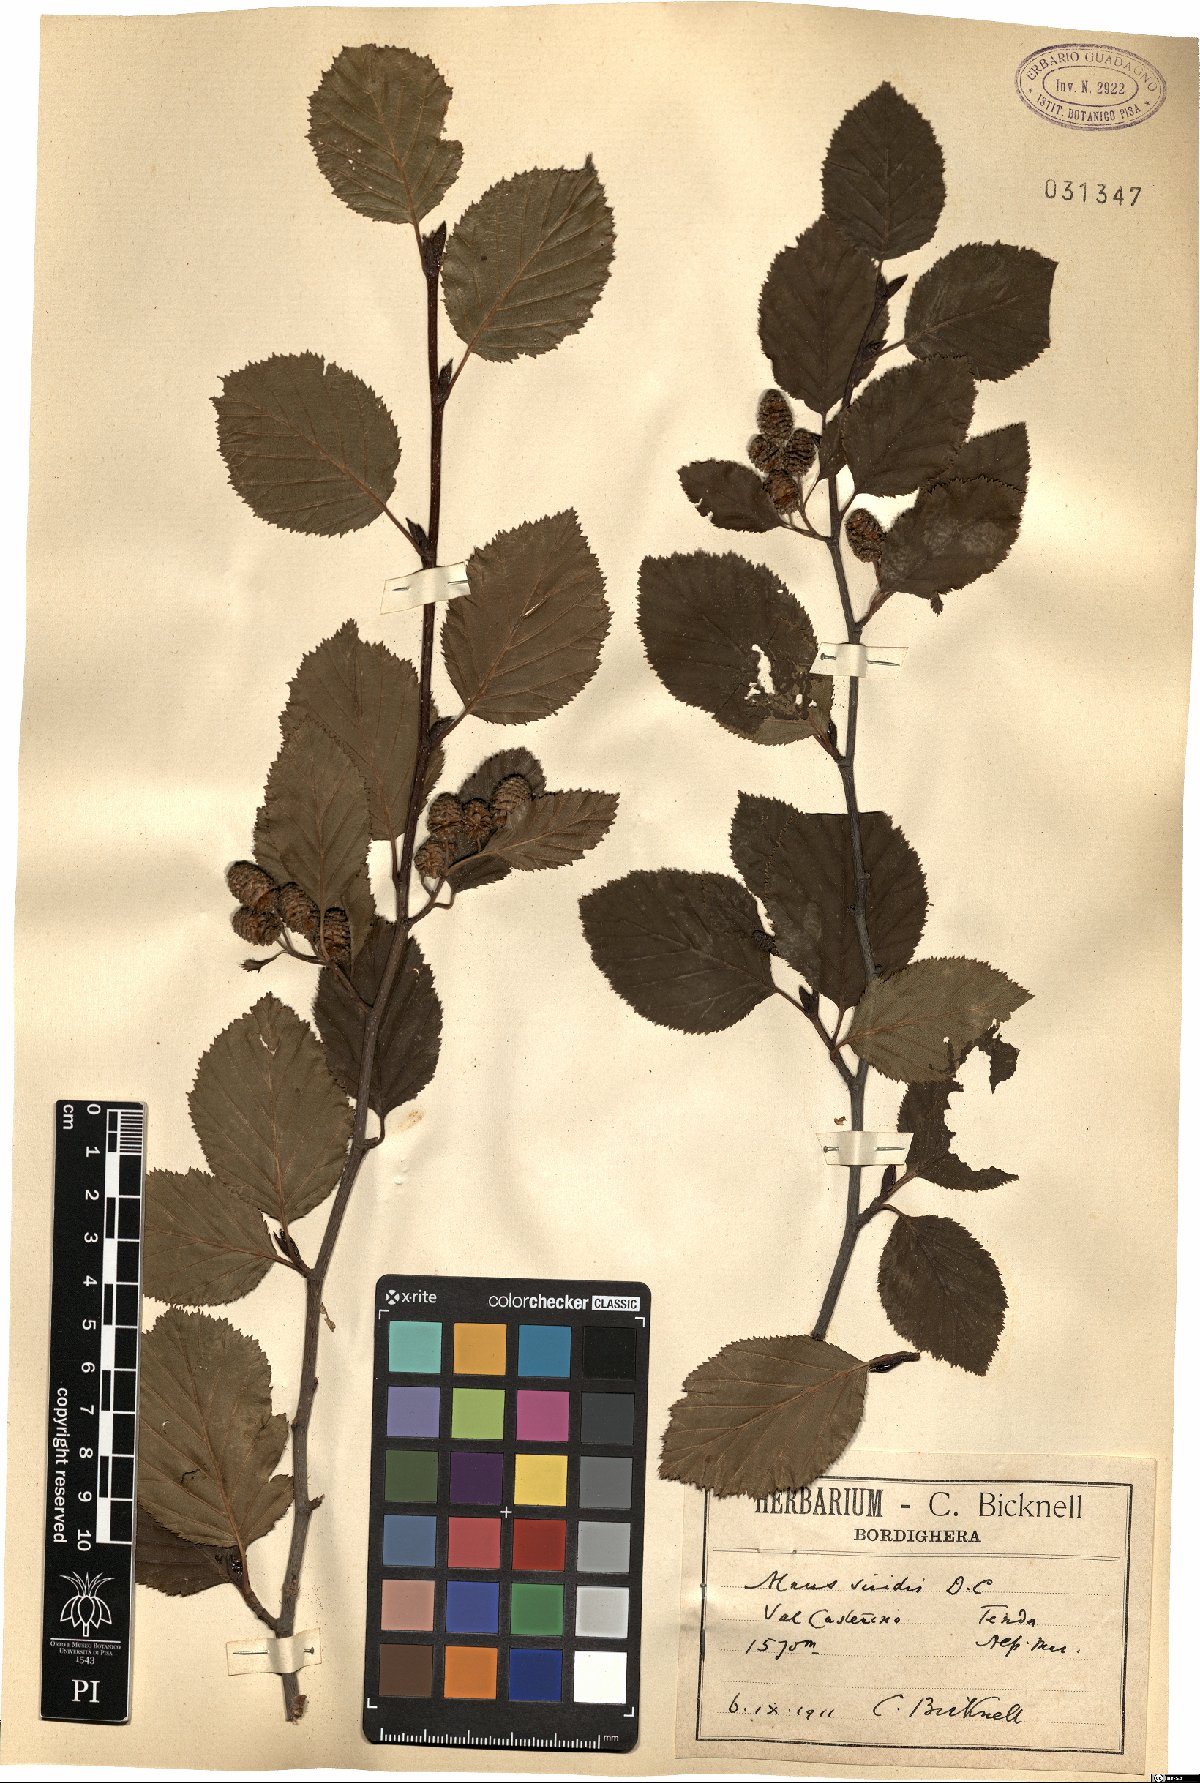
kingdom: Plantae
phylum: Tracheophyta
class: Magnoliopsida
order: Fagales
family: Betulaceae
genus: Alnus
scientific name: Alnus alnobetula
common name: Green alder
